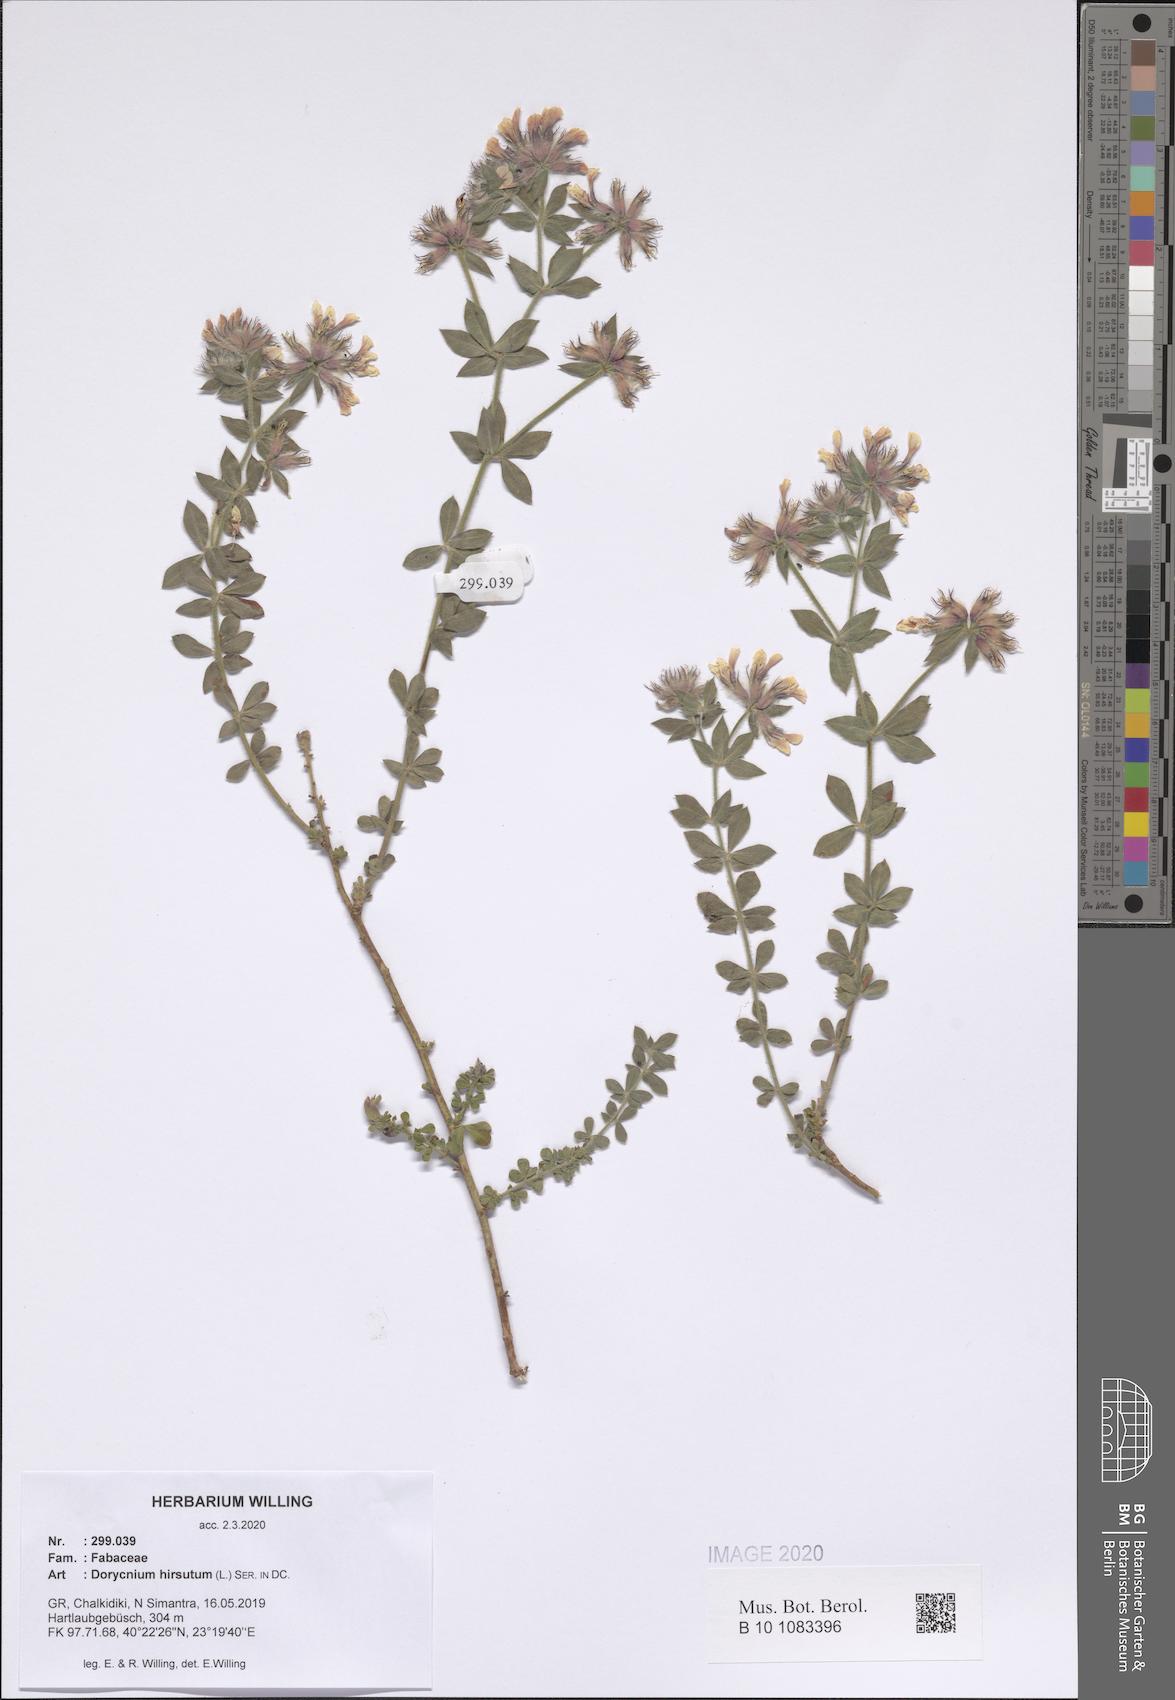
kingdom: Plantae
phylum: Tracheophyta
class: Magnoliopsida
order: Fabales
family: Fabaceae
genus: Lotus
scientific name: Lotus hirsutus
